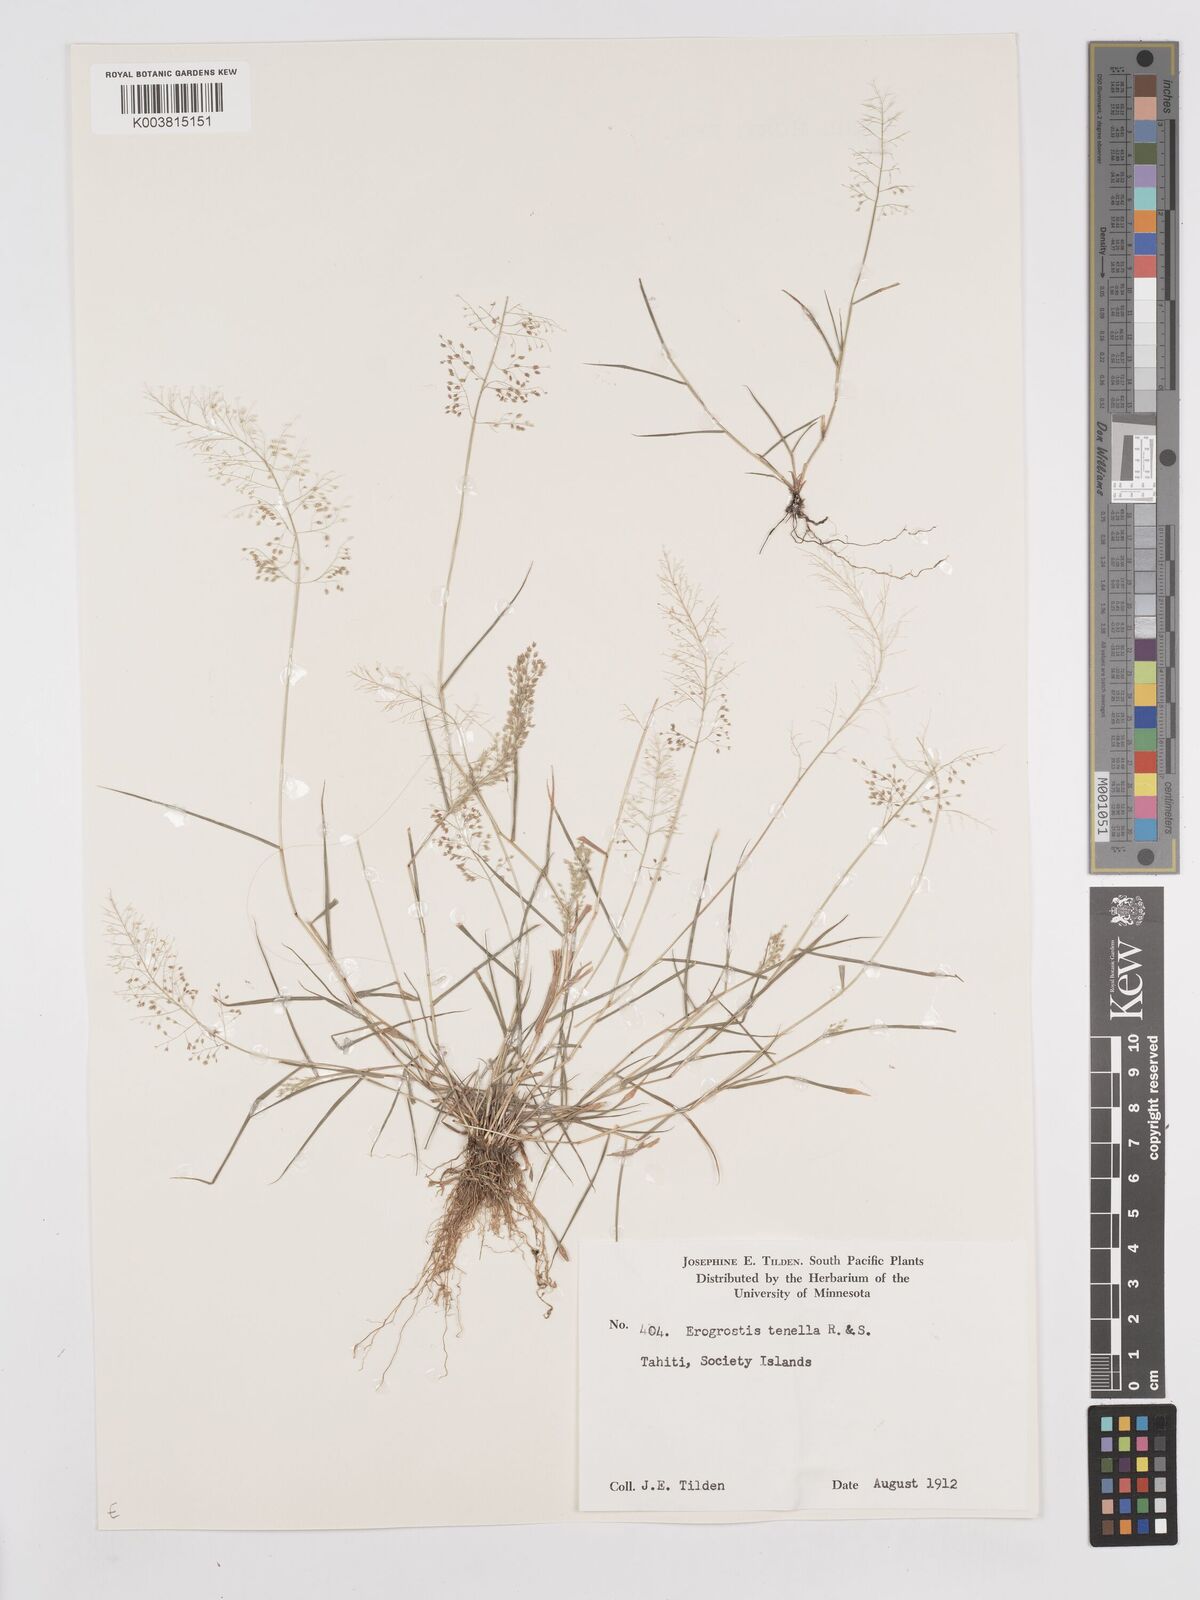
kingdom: Plantae
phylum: Tracheophyta
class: Liliopsida
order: Poales
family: Poaceae
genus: Eragrostis
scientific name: Eragrostis tenella
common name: Japanese lovegrass
